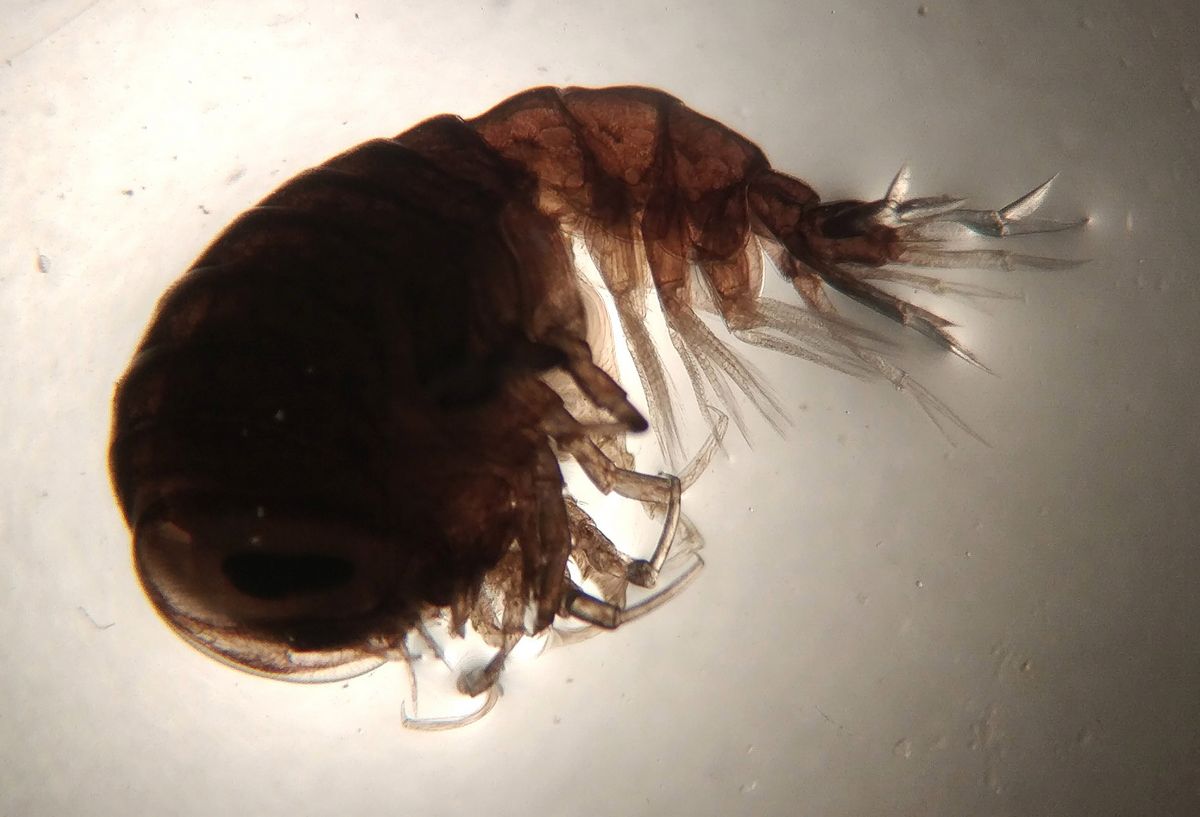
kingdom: Animalia
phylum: Arthropoda
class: Malacostraca
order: Amphipoda
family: Hyperiidae
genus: Hyperia
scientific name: Hyperia galba
